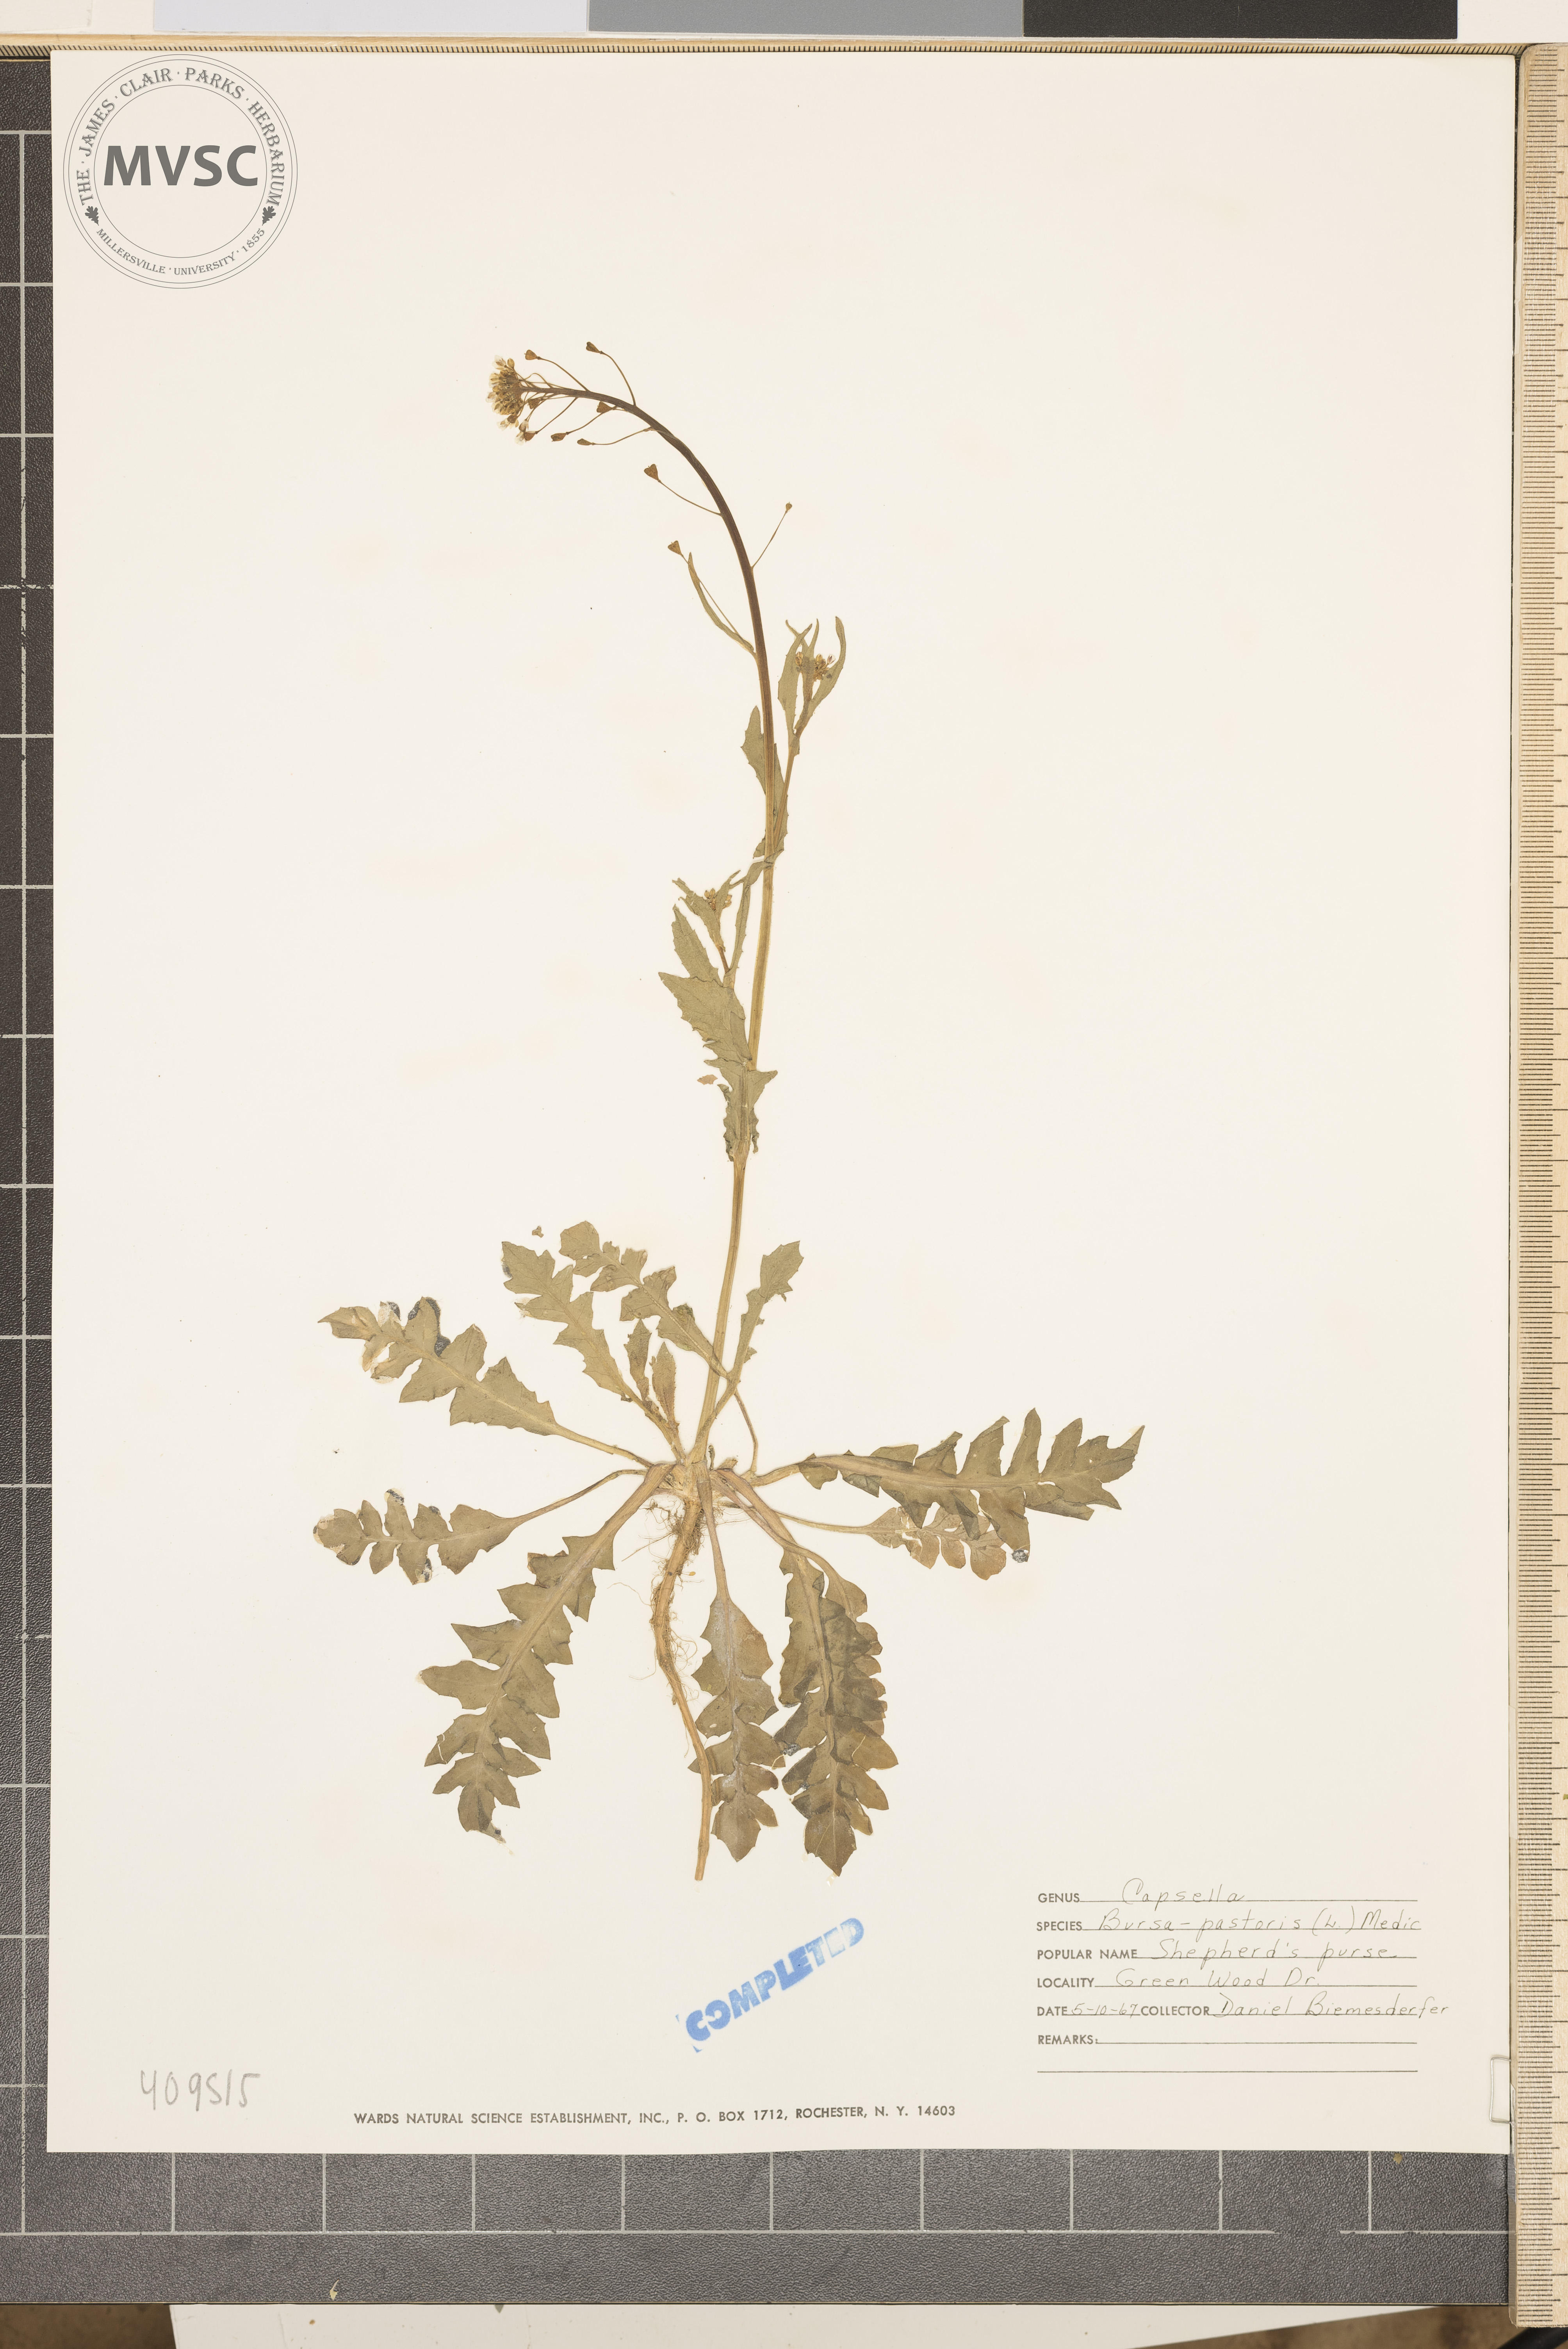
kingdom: Plantae
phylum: Tracheophyta
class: Magnoliopsida
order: Brassicales
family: Brassicaceae
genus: Capsella
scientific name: Capsella bursa-pastoris
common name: Shepherd's purse
